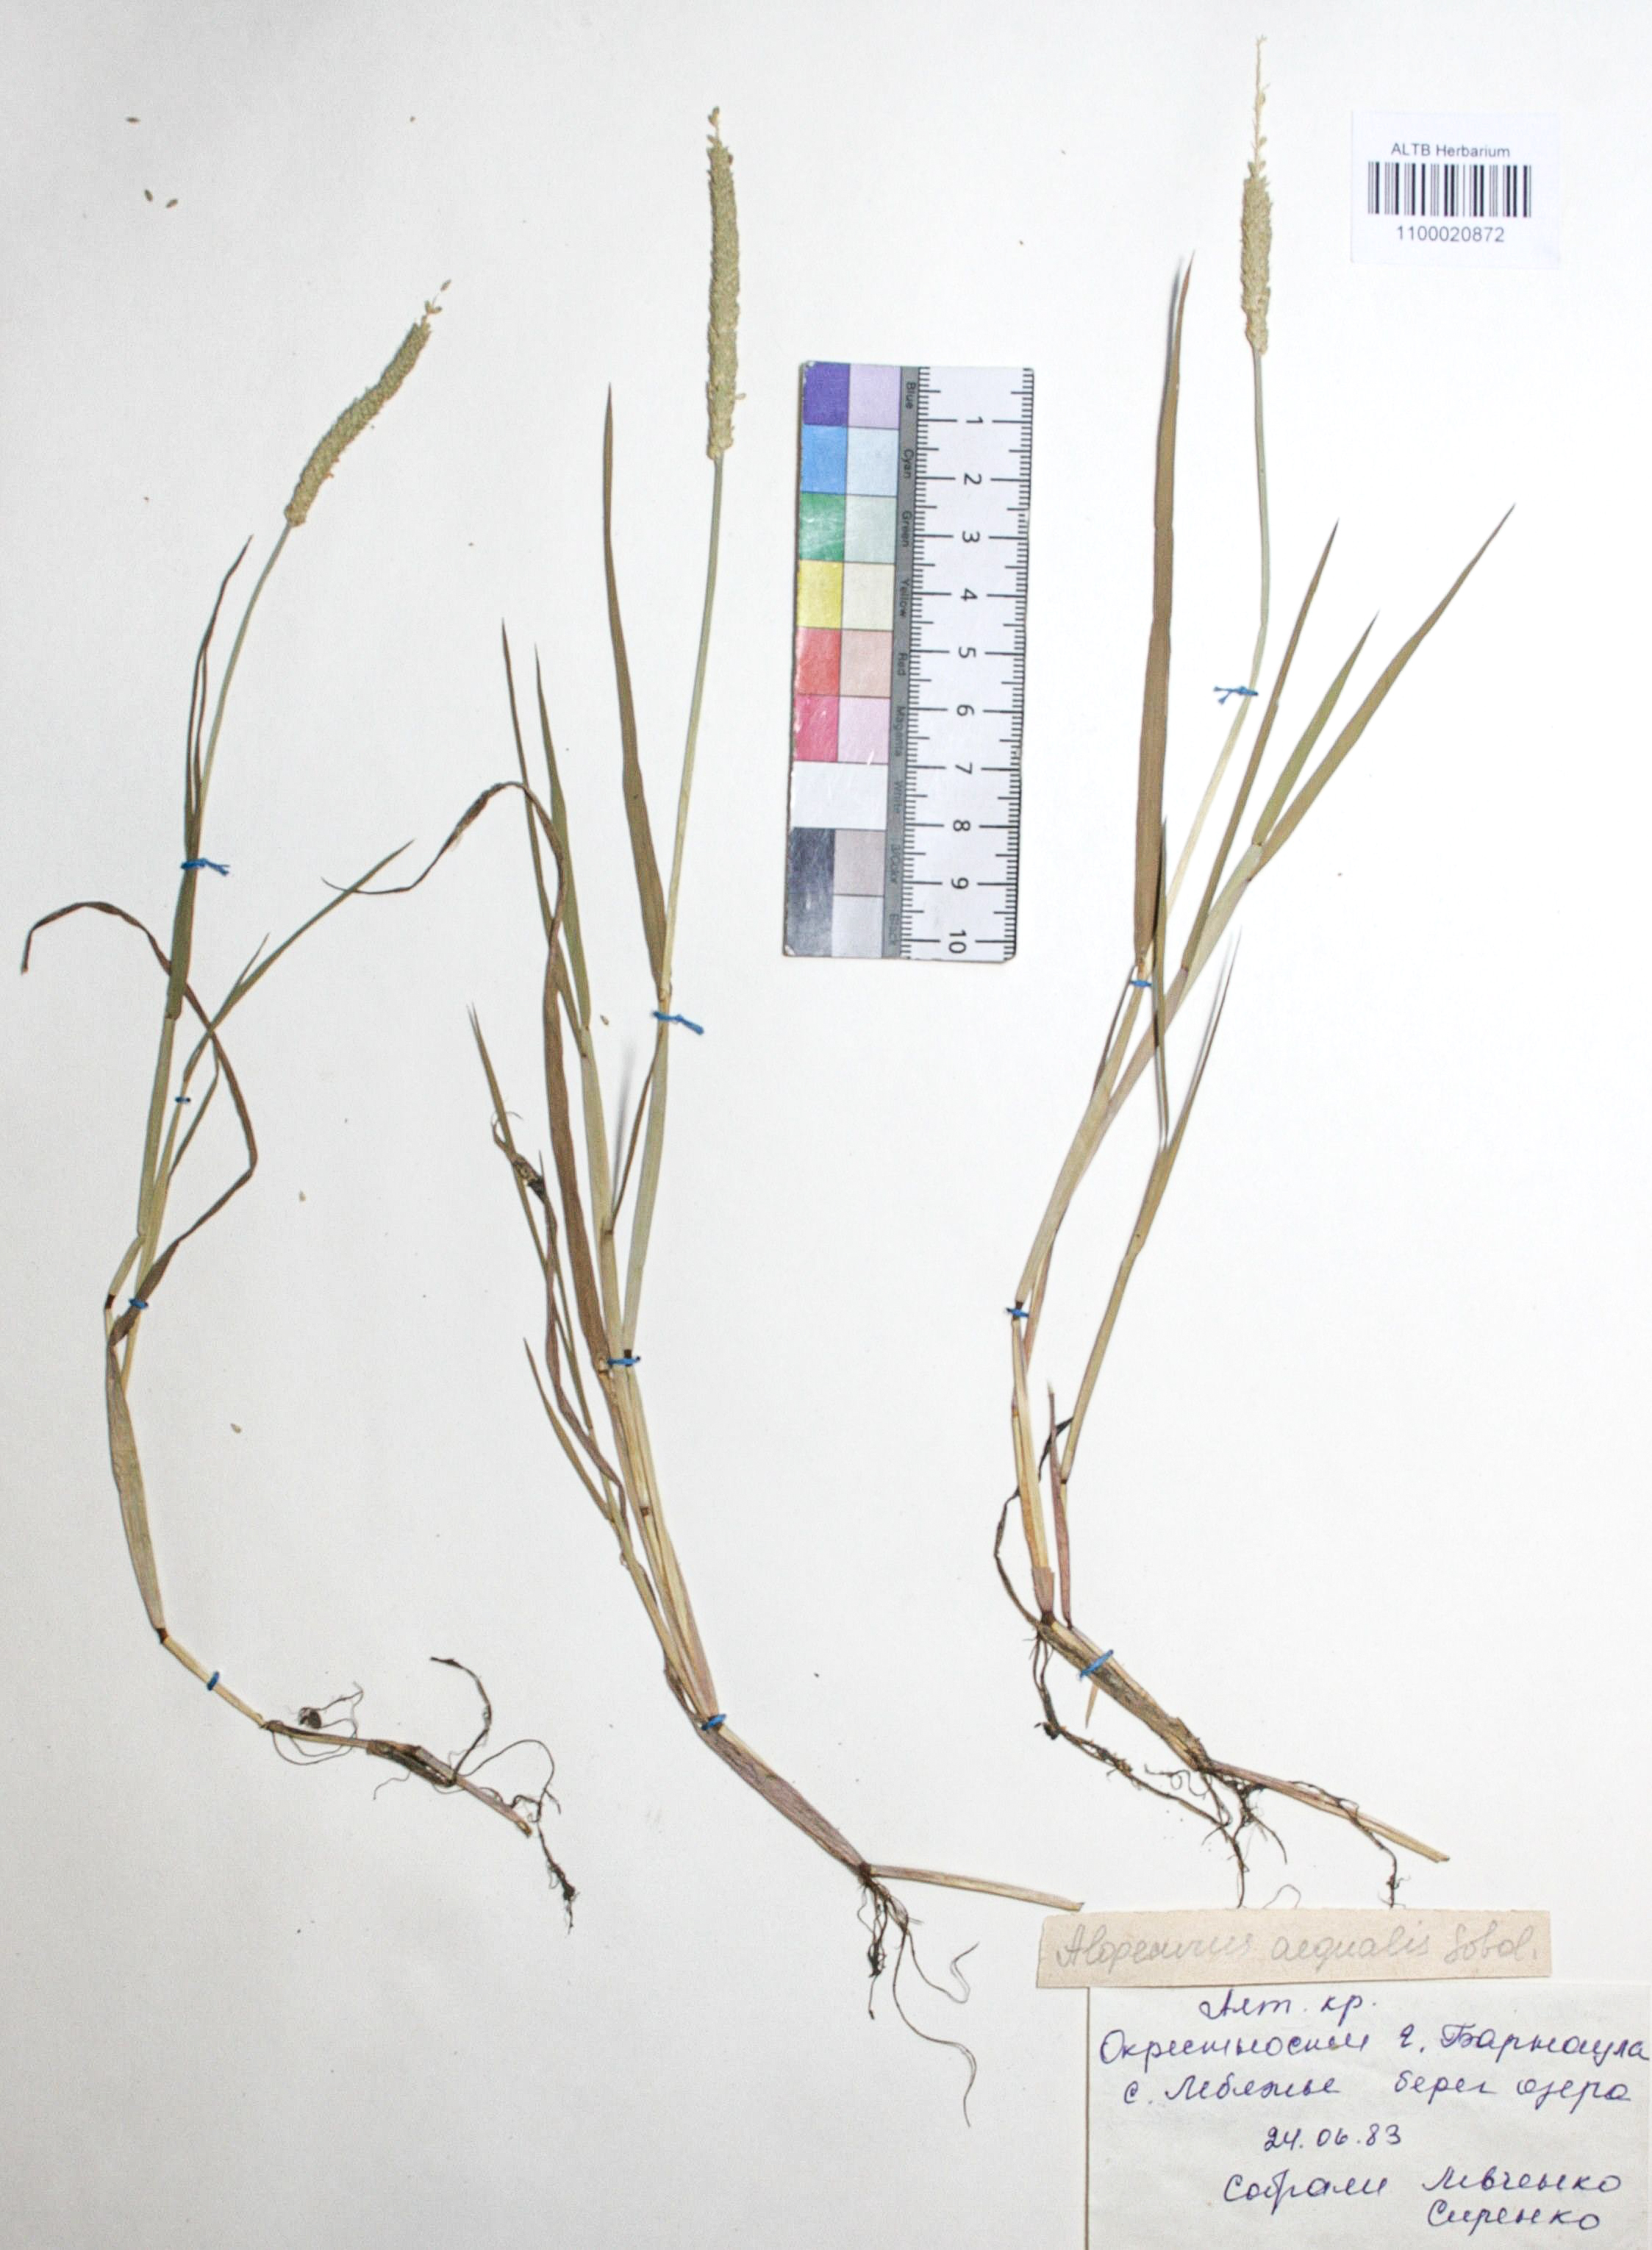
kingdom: Plantae
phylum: Tracheophyta
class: Liliopsida
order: Poales
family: Poaceae
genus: Alopecurus
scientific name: Alopecurus aequalis
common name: Orange foxtail
